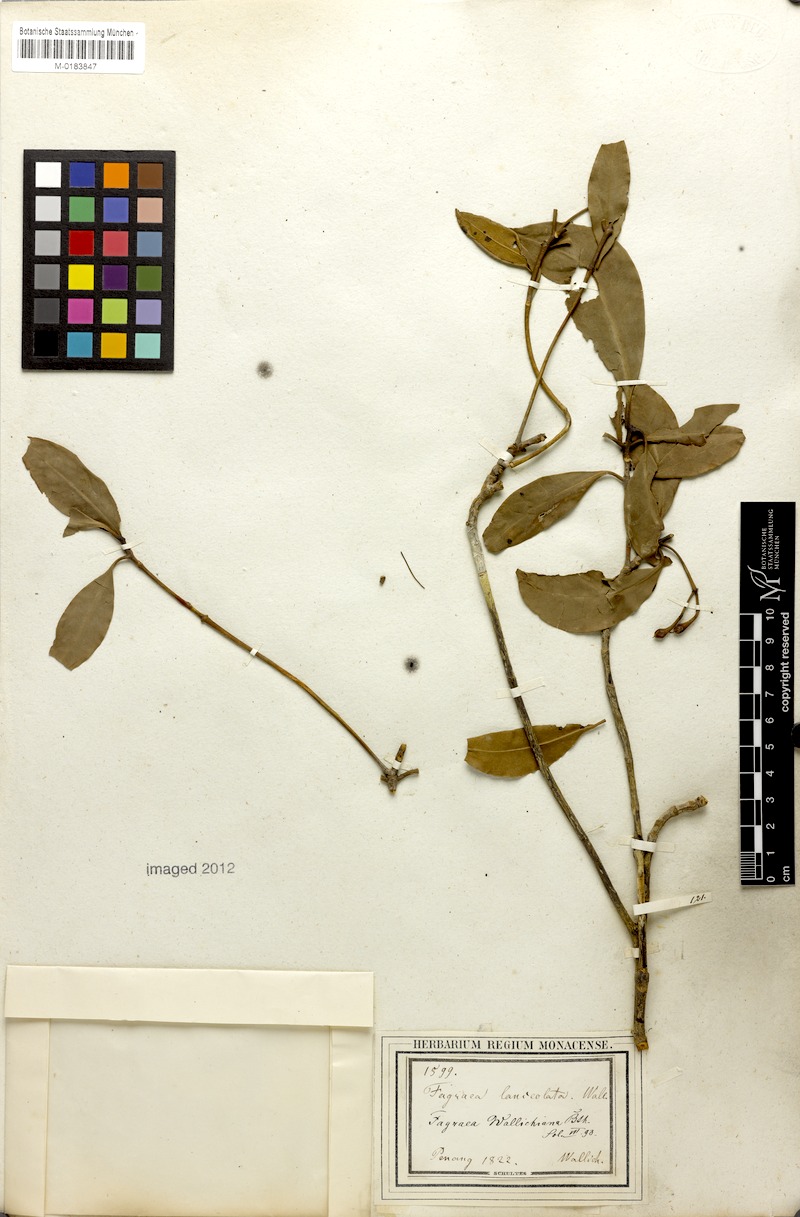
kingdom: Plantae
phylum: Tracheophyta
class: Magnoliopsida
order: Gentianales
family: Gentianaceae
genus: Cyrtophyllum
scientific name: Cyrtophyllum lanceolatum
